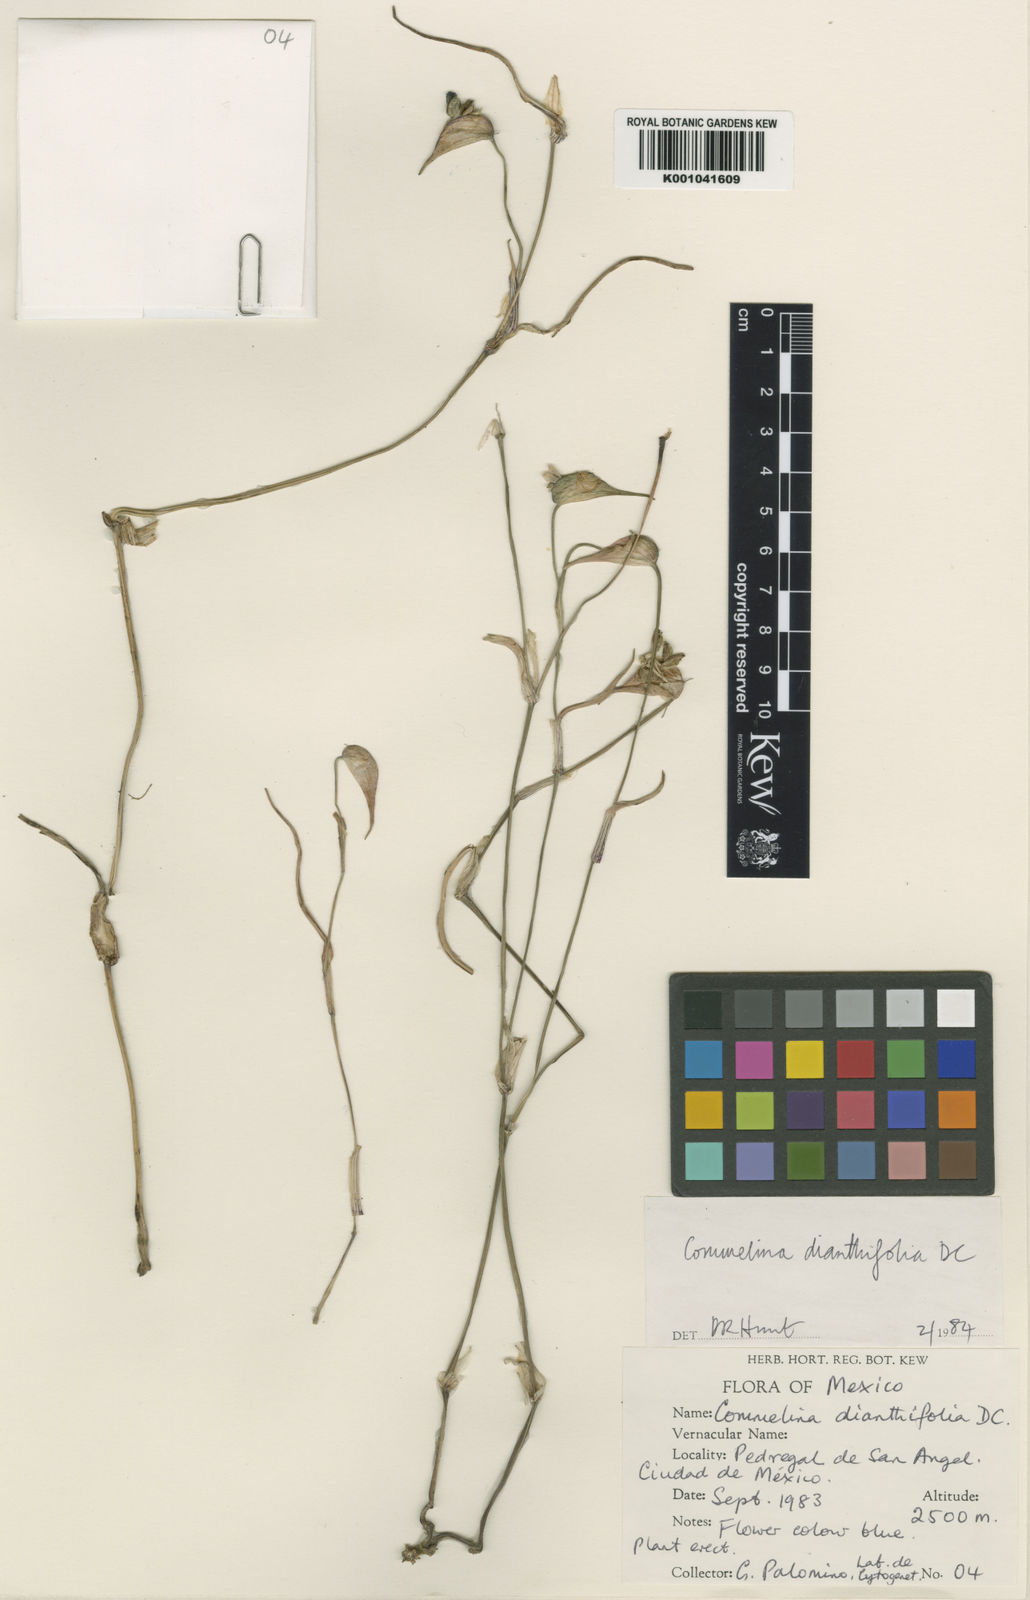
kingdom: Plantae
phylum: Tracheophyta
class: Liliopsida
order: Commelinales
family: Commelinaceae
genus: Commelina
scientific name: Commelina tuberosa
